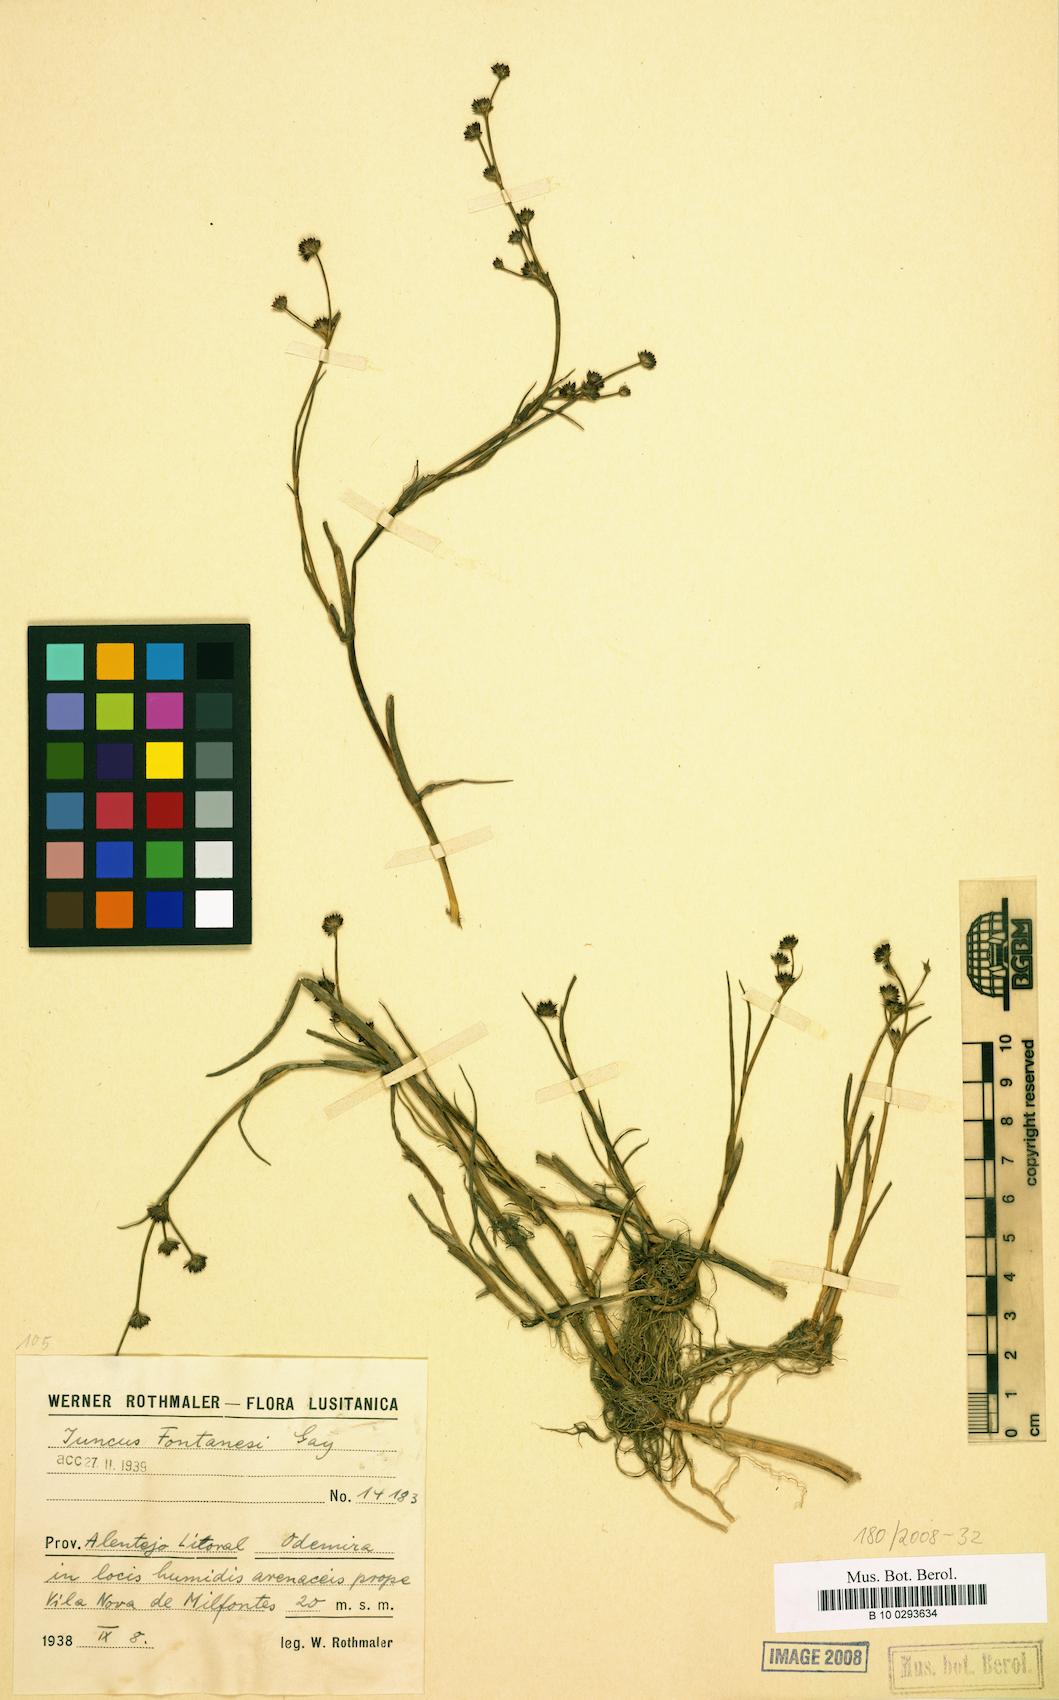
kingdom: Plantae
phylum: Tracheophyta
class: Liliopsida
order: Poales
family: Juncaceae
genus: Juncus
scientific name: Juncus fontanesii
